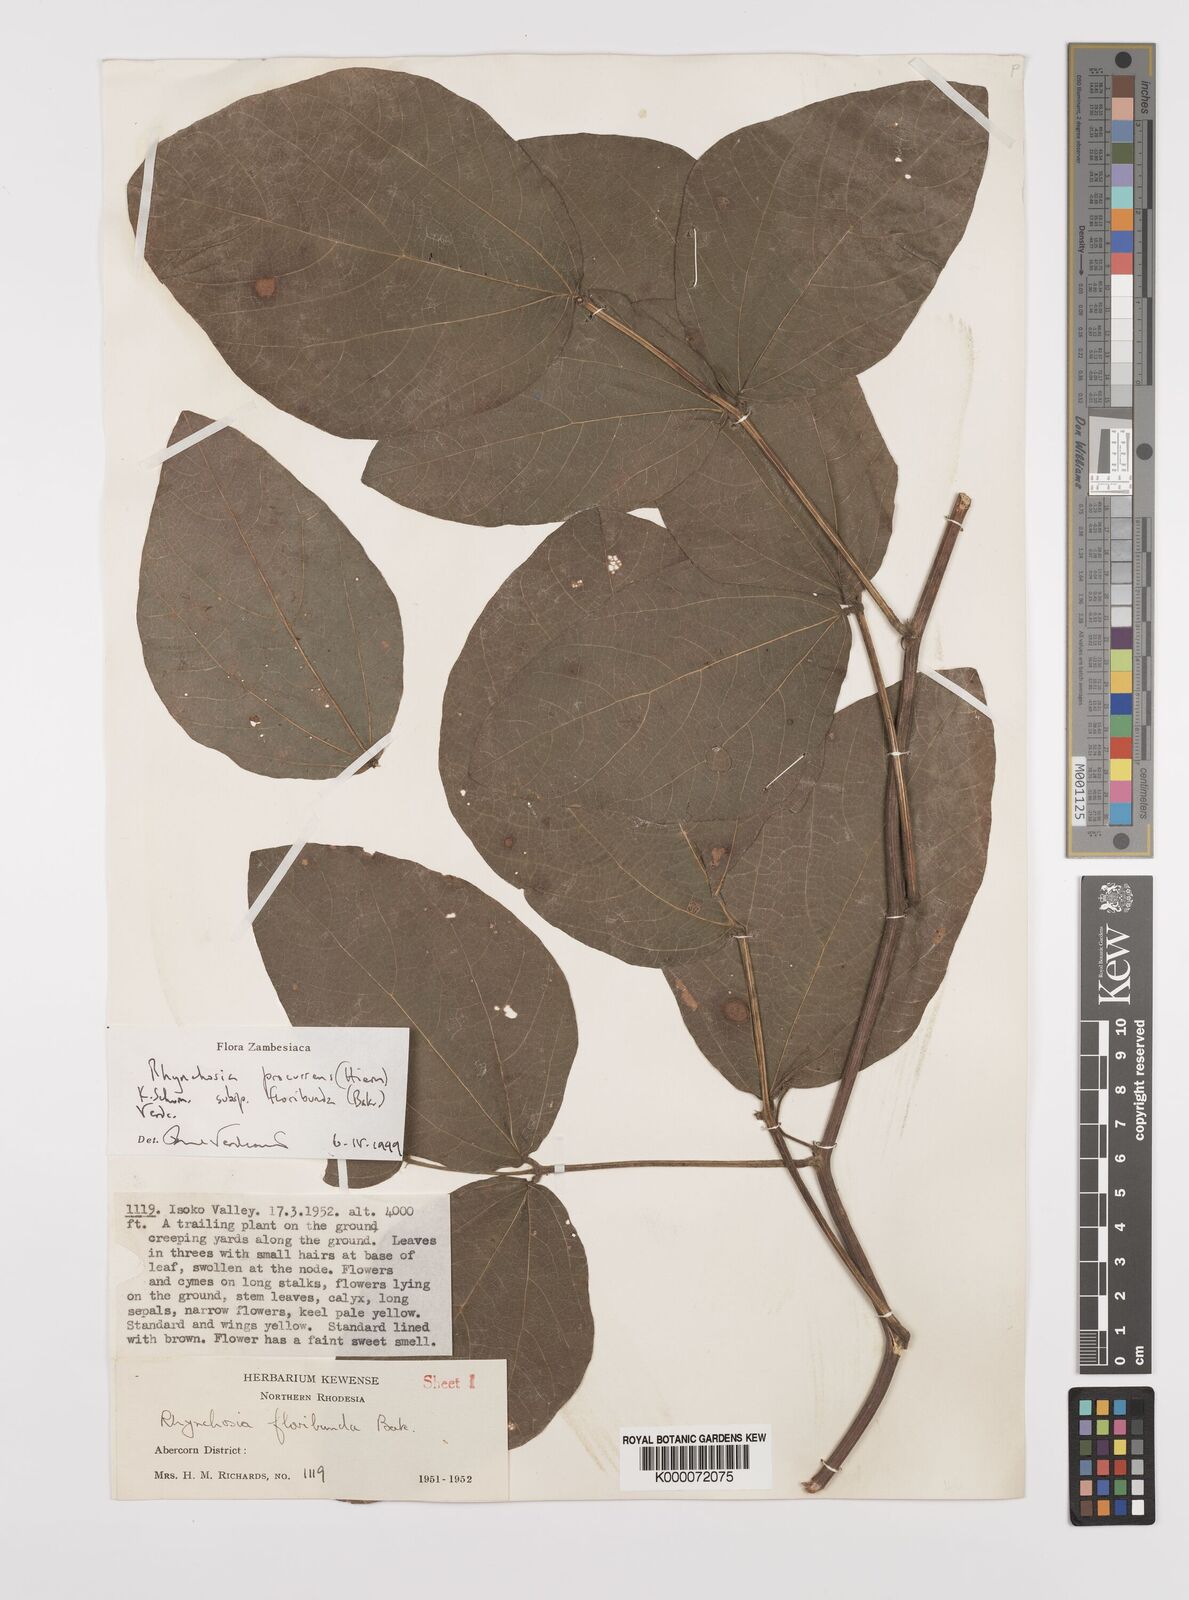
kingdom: Plantae
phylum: Tracheophyta
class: Magnoliopsida
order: Fabales
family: Fabaceae
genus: Rhynchosia
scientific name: Rhynchosia procurrens
